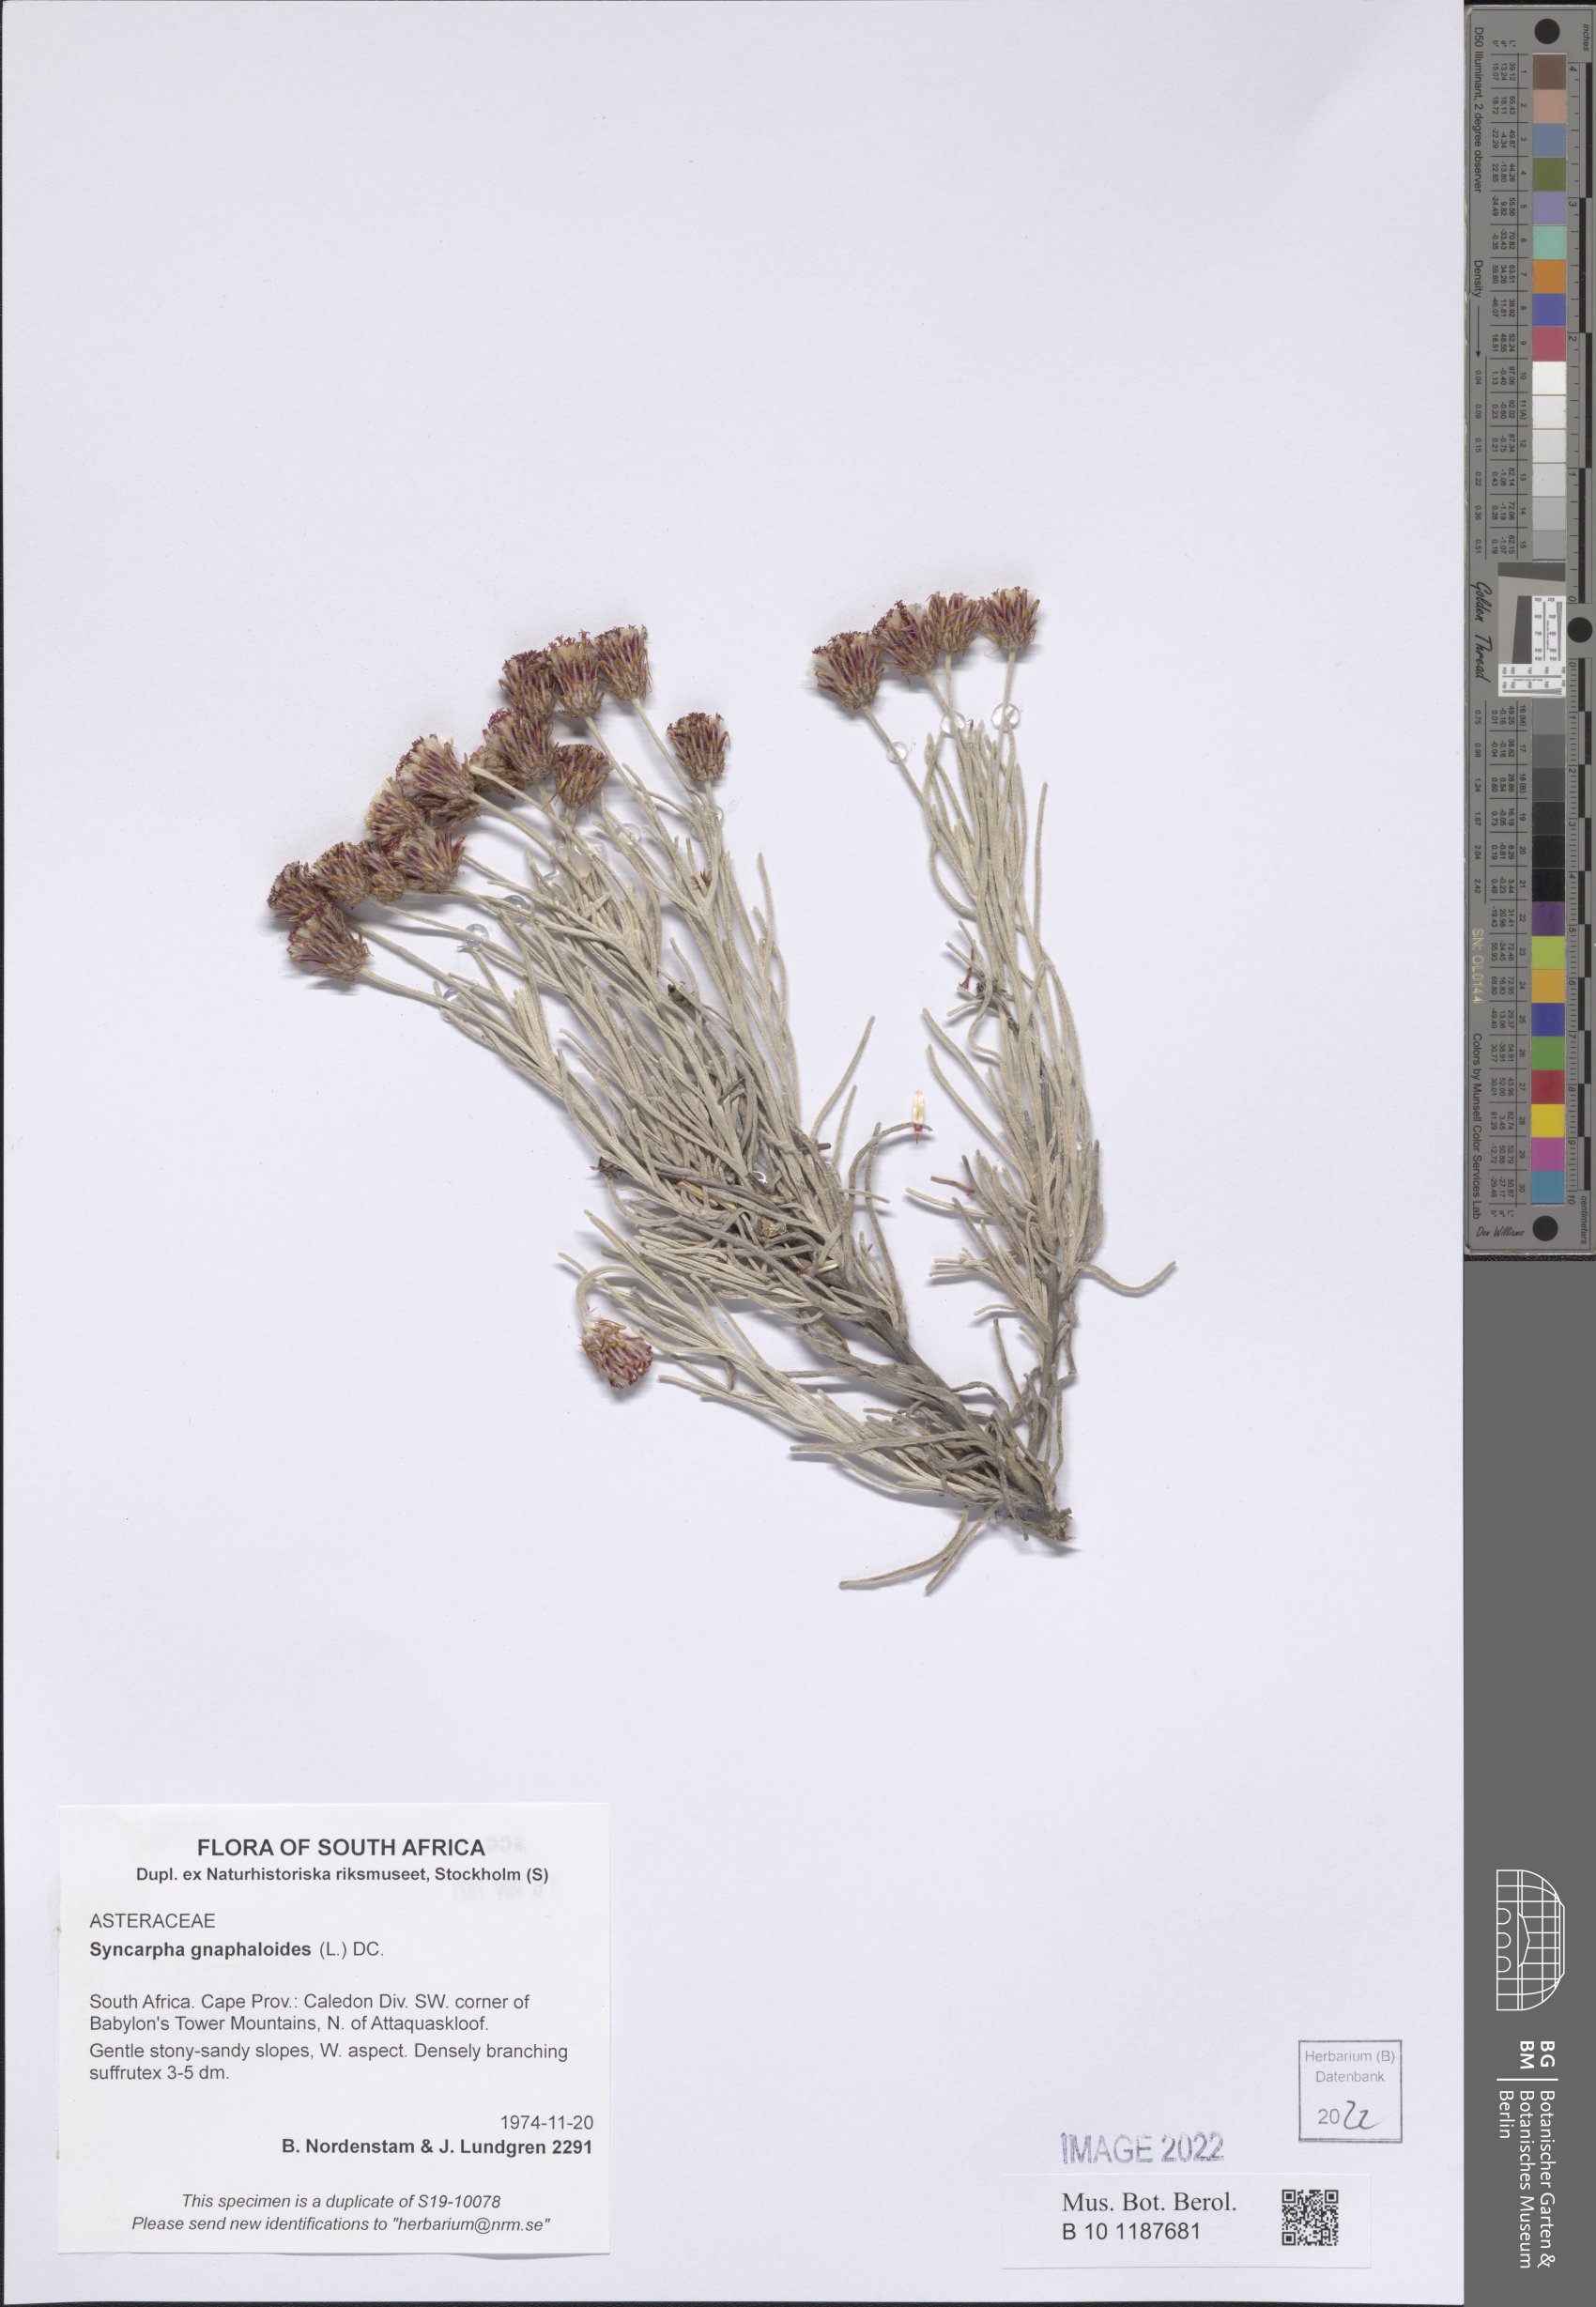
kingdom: Plantae
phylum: Tracheophyta
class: Magnoliopsida
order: Asterales
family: Asteraceae
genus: Syncarpha
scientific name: Syncarpha gnaphaloides
